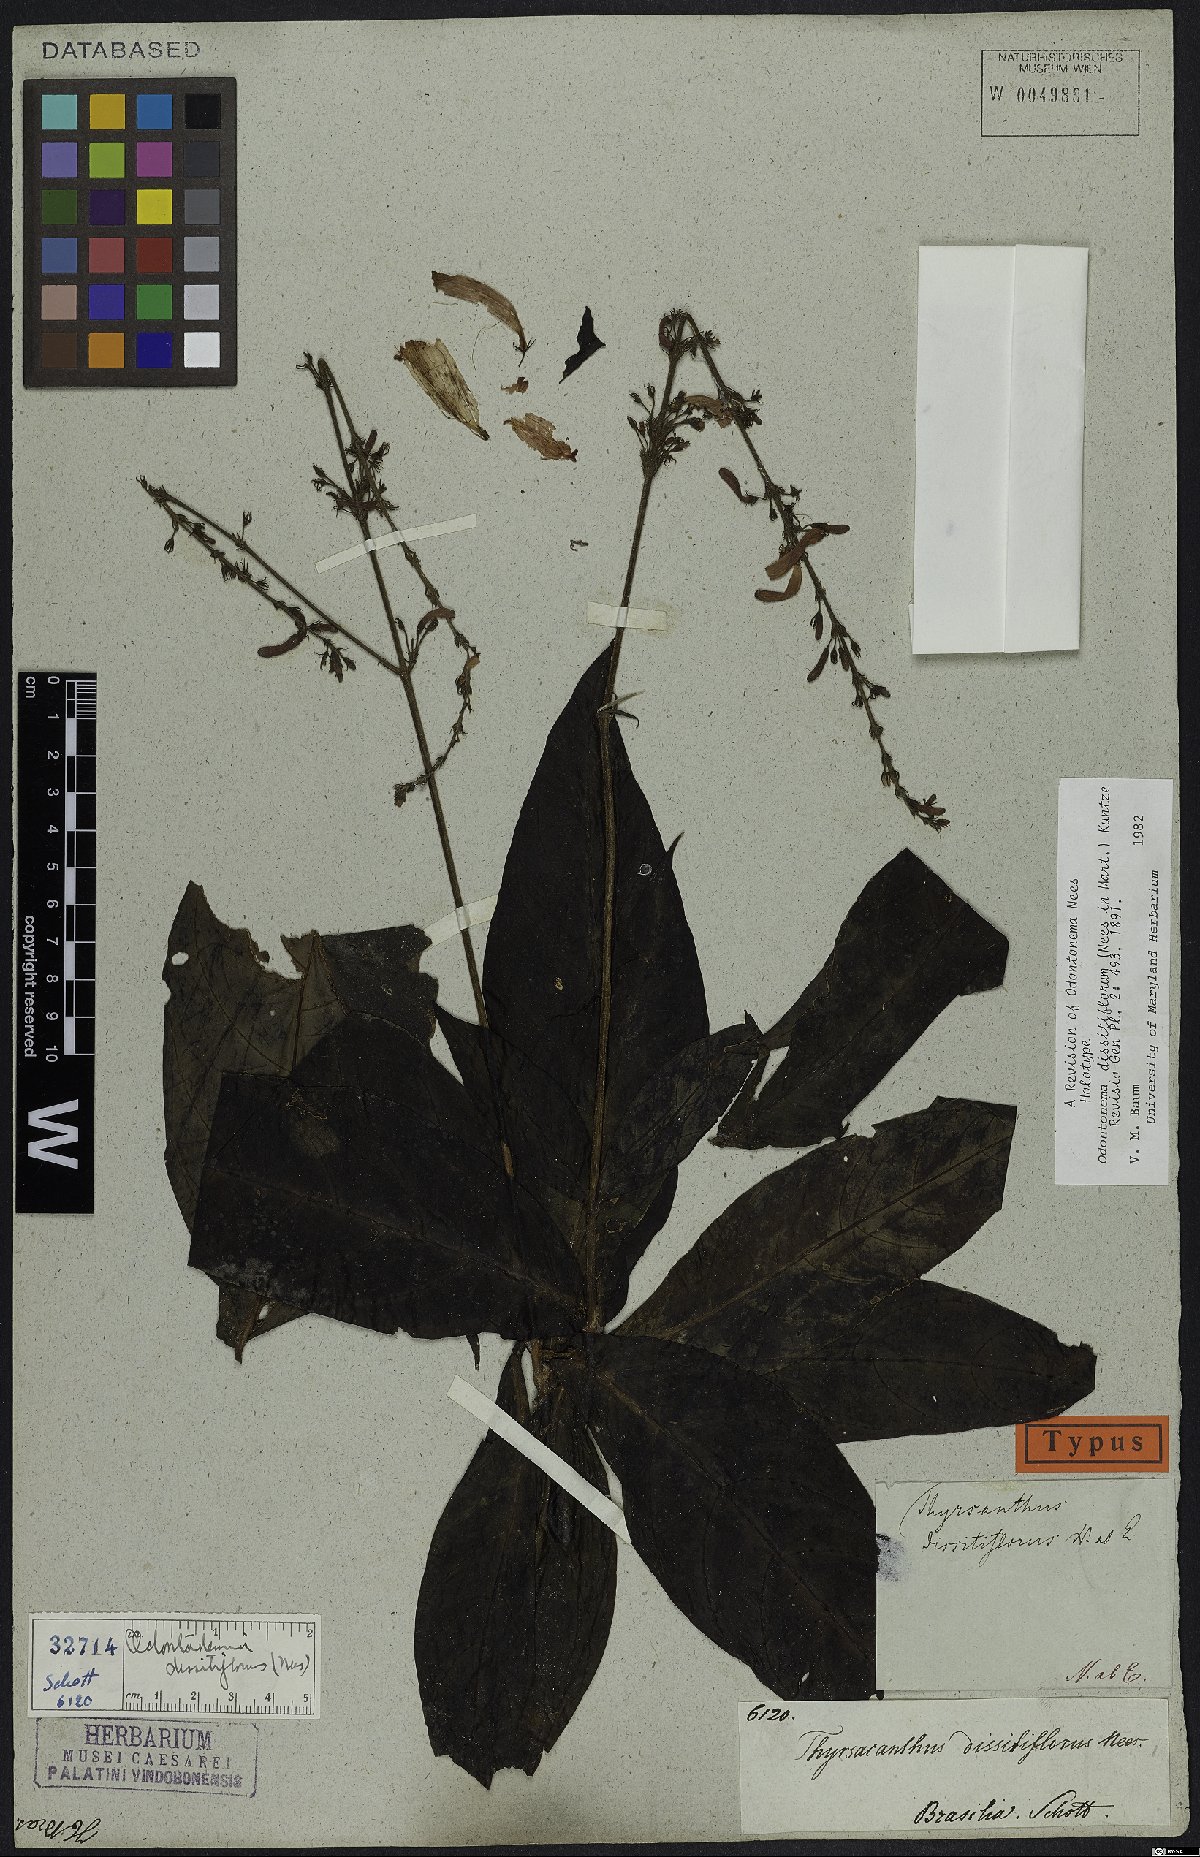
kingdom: Plantae
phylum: Tracheophyta
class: Magnoliopsida
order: Lamiales
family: Acanthaceae
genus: Odontonema
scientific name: Odontonema dissitiflorum
